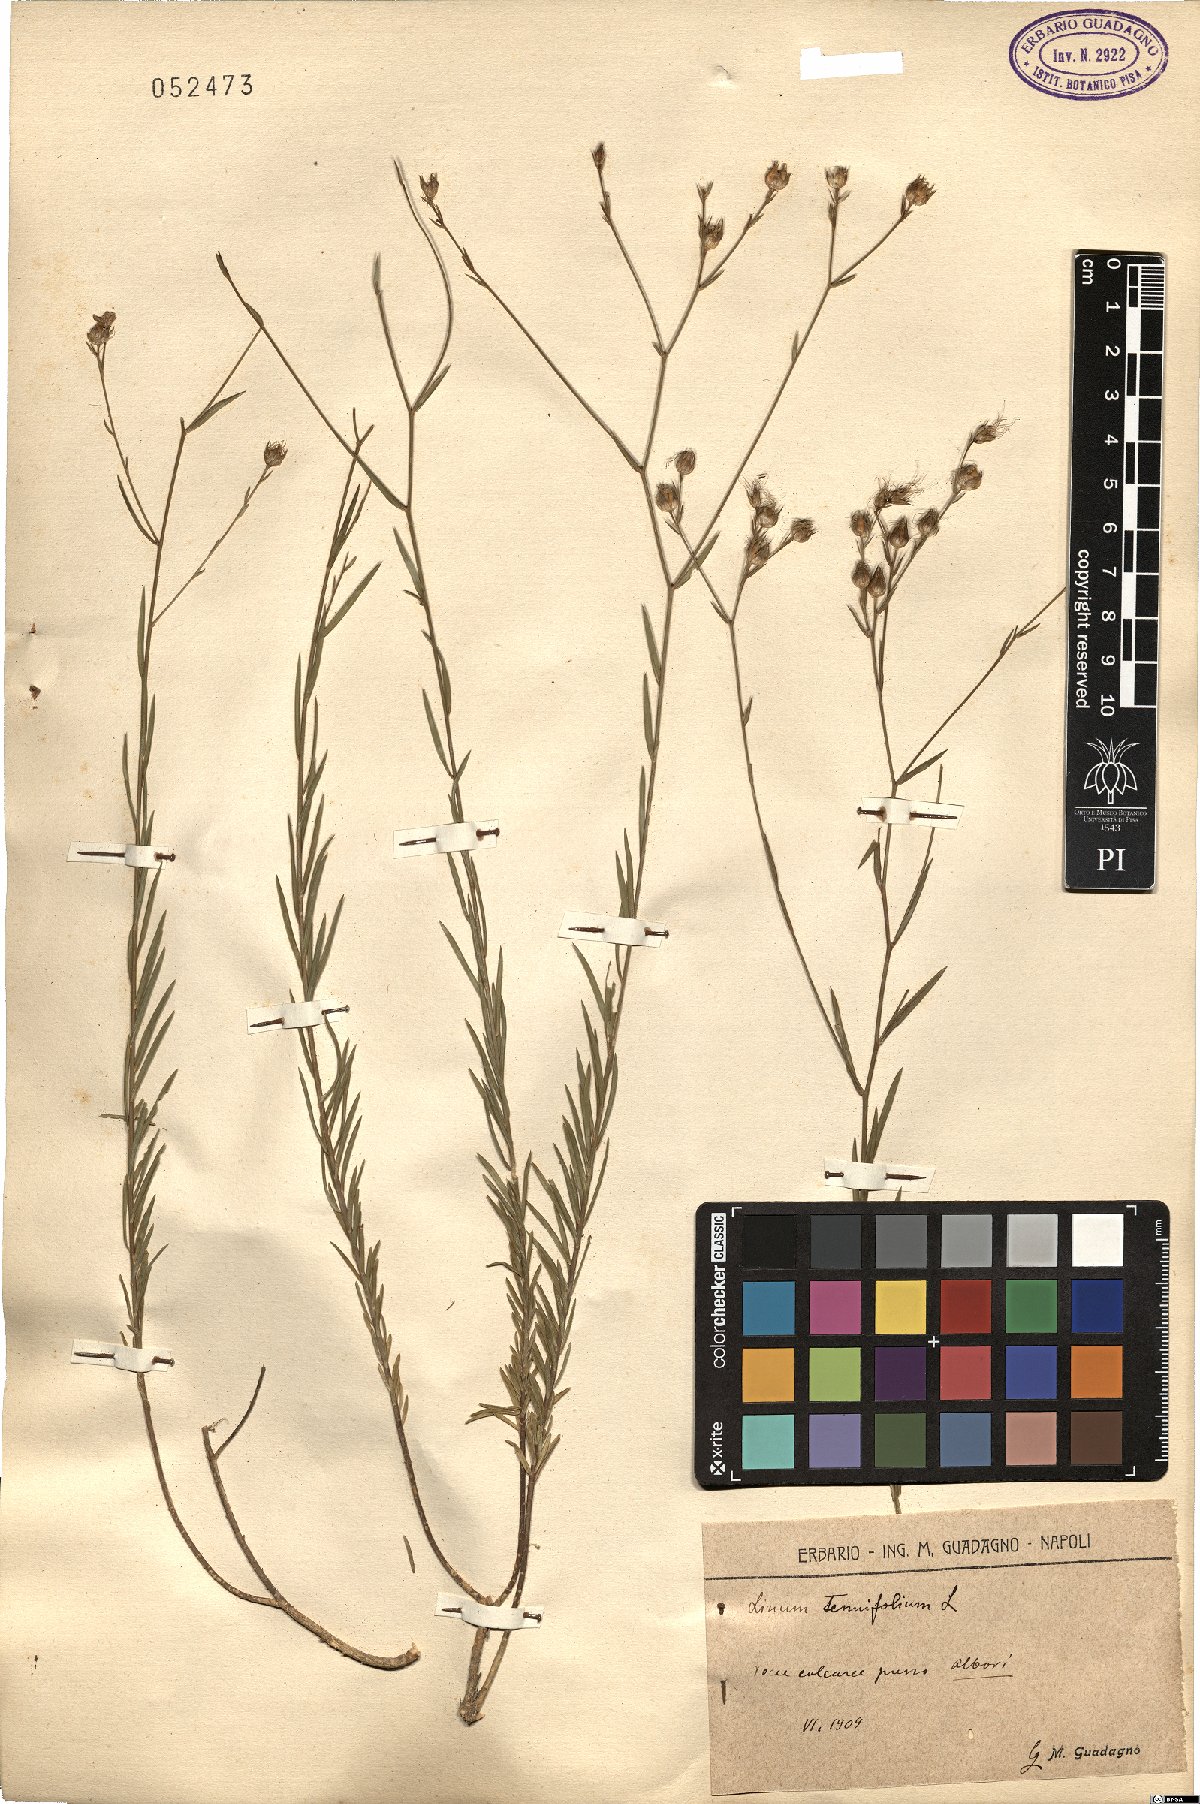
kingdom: Plantae
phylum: Tracheophyta
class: Magnoliopsida
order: Malpighiales
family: Linaceae
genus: Linum
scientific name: Linum tenuifolium
